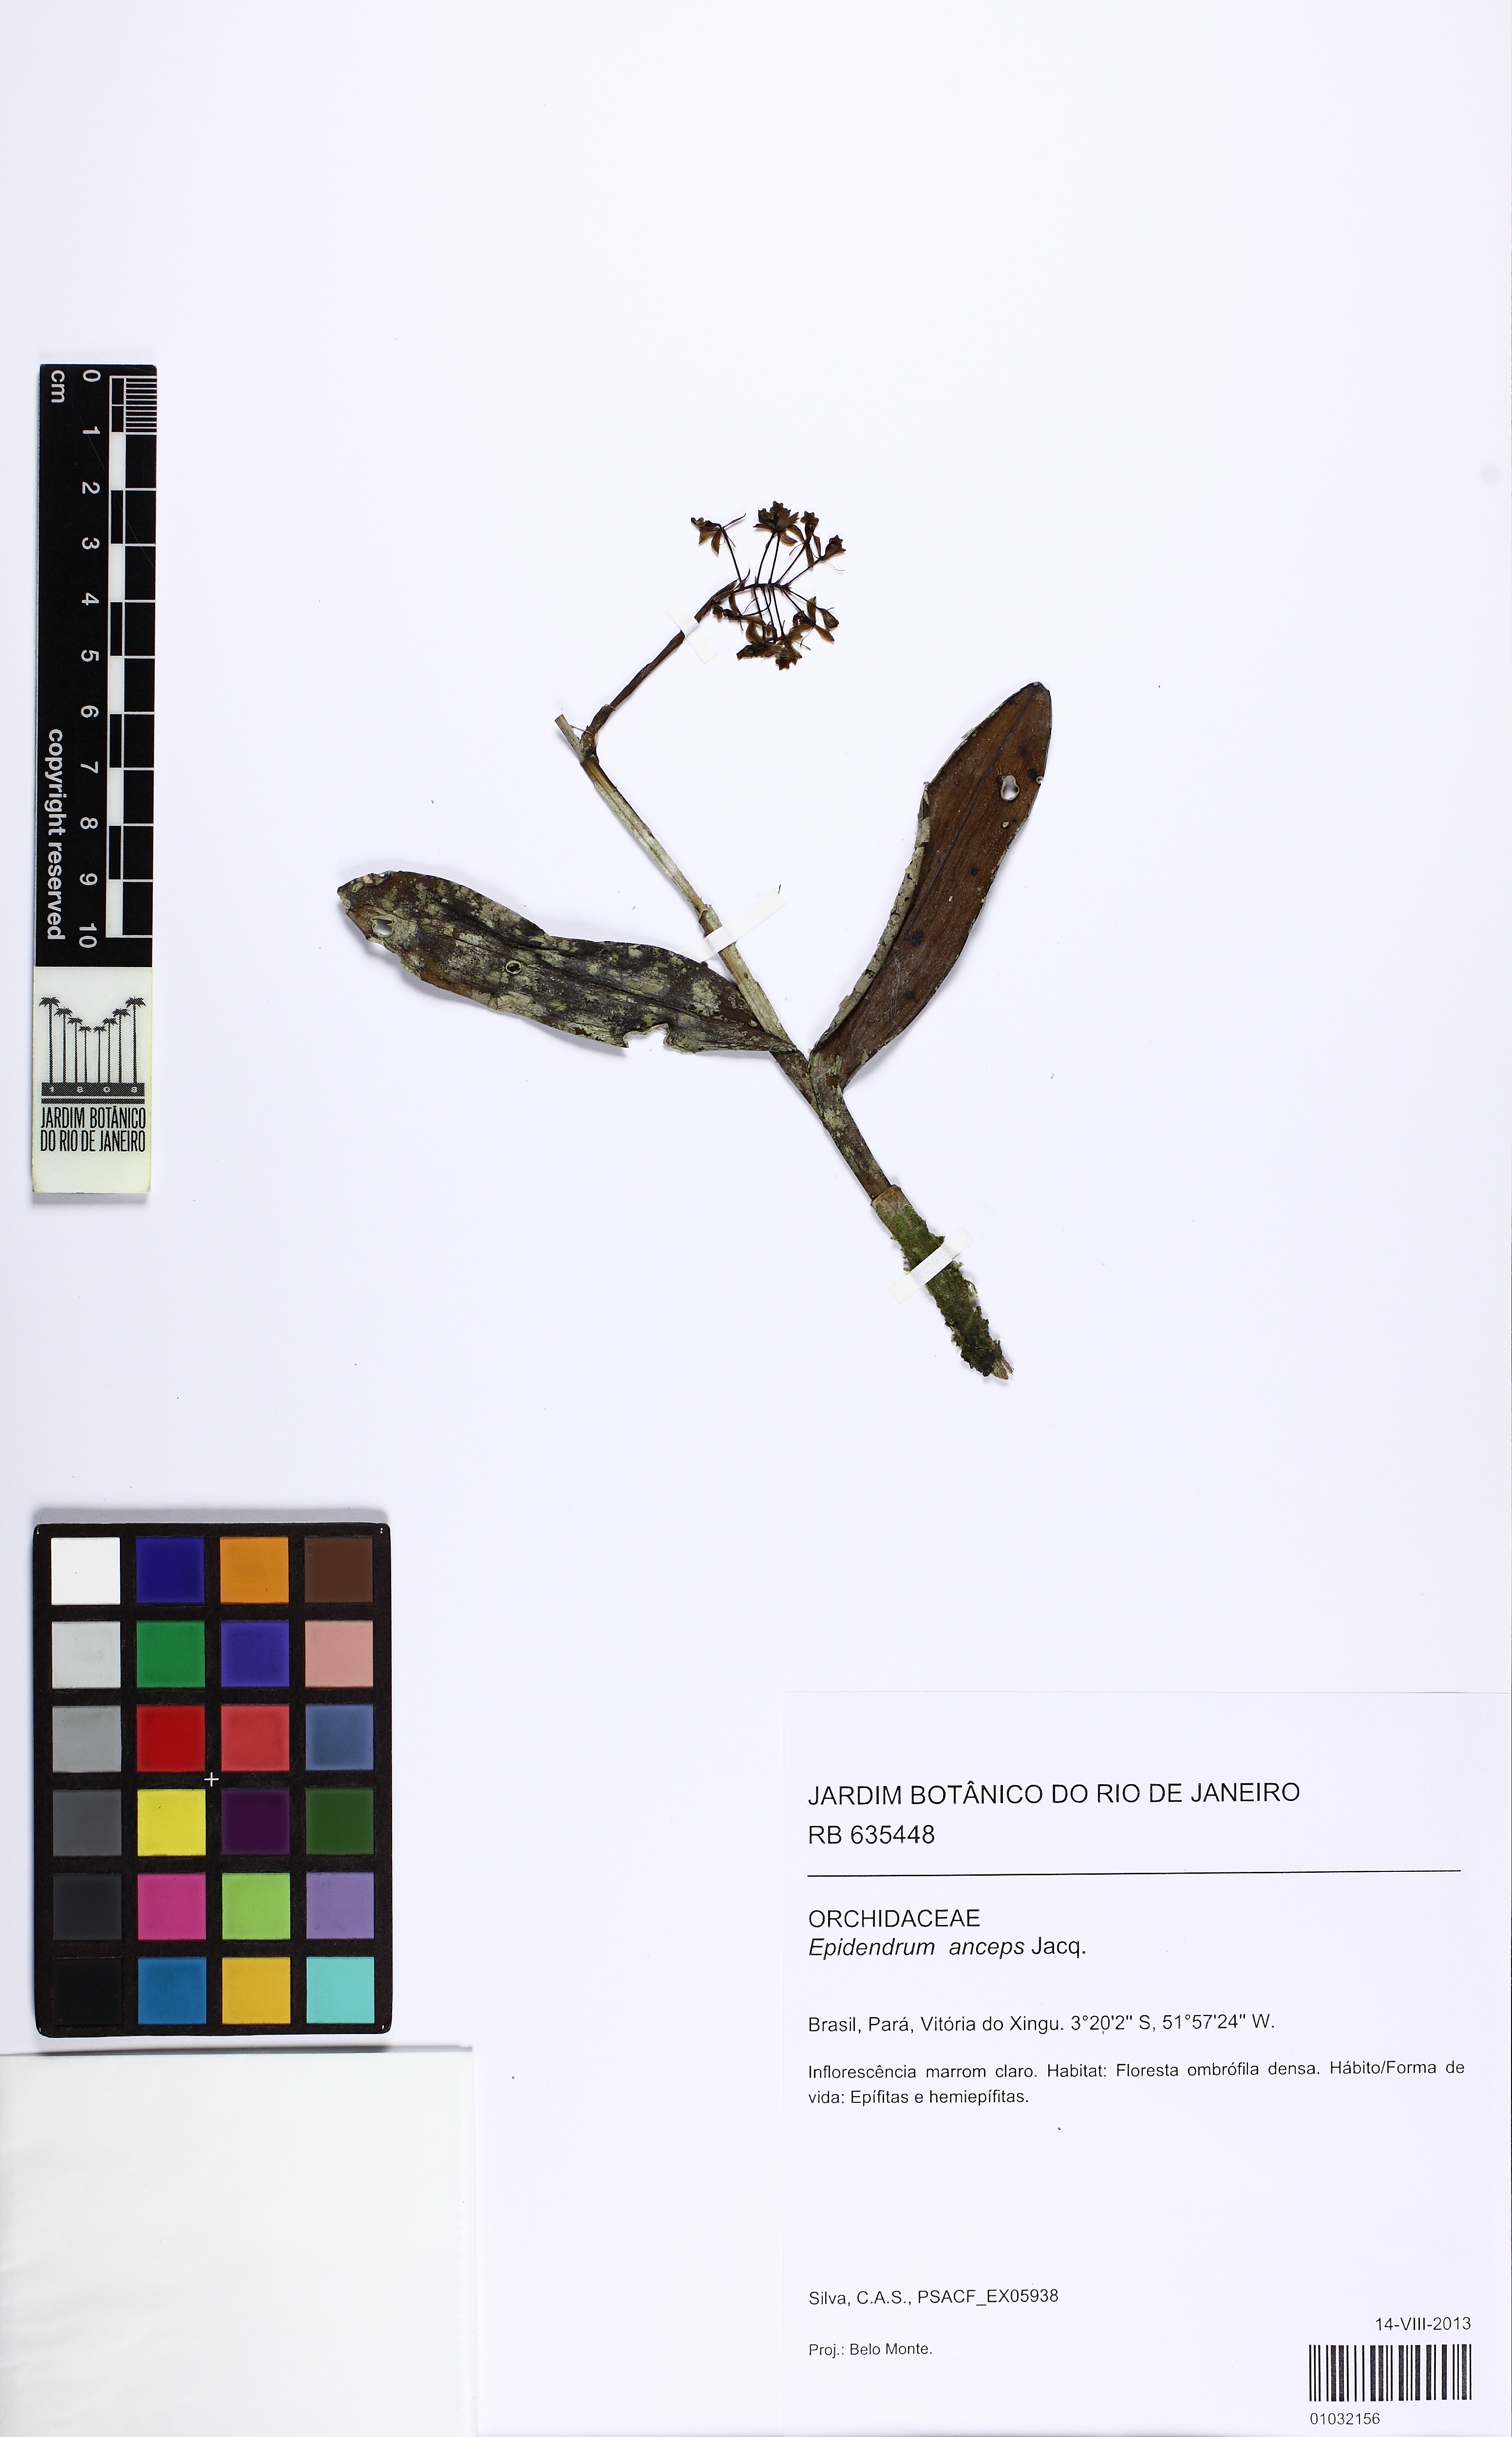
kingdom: Plantae
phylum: Tracheophyta
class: Liliopsida
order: Asparagales
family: Orchidaceae
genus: Epidendrum
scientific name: Epidendrum anceps
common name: Brown-flower butterfly orchid
